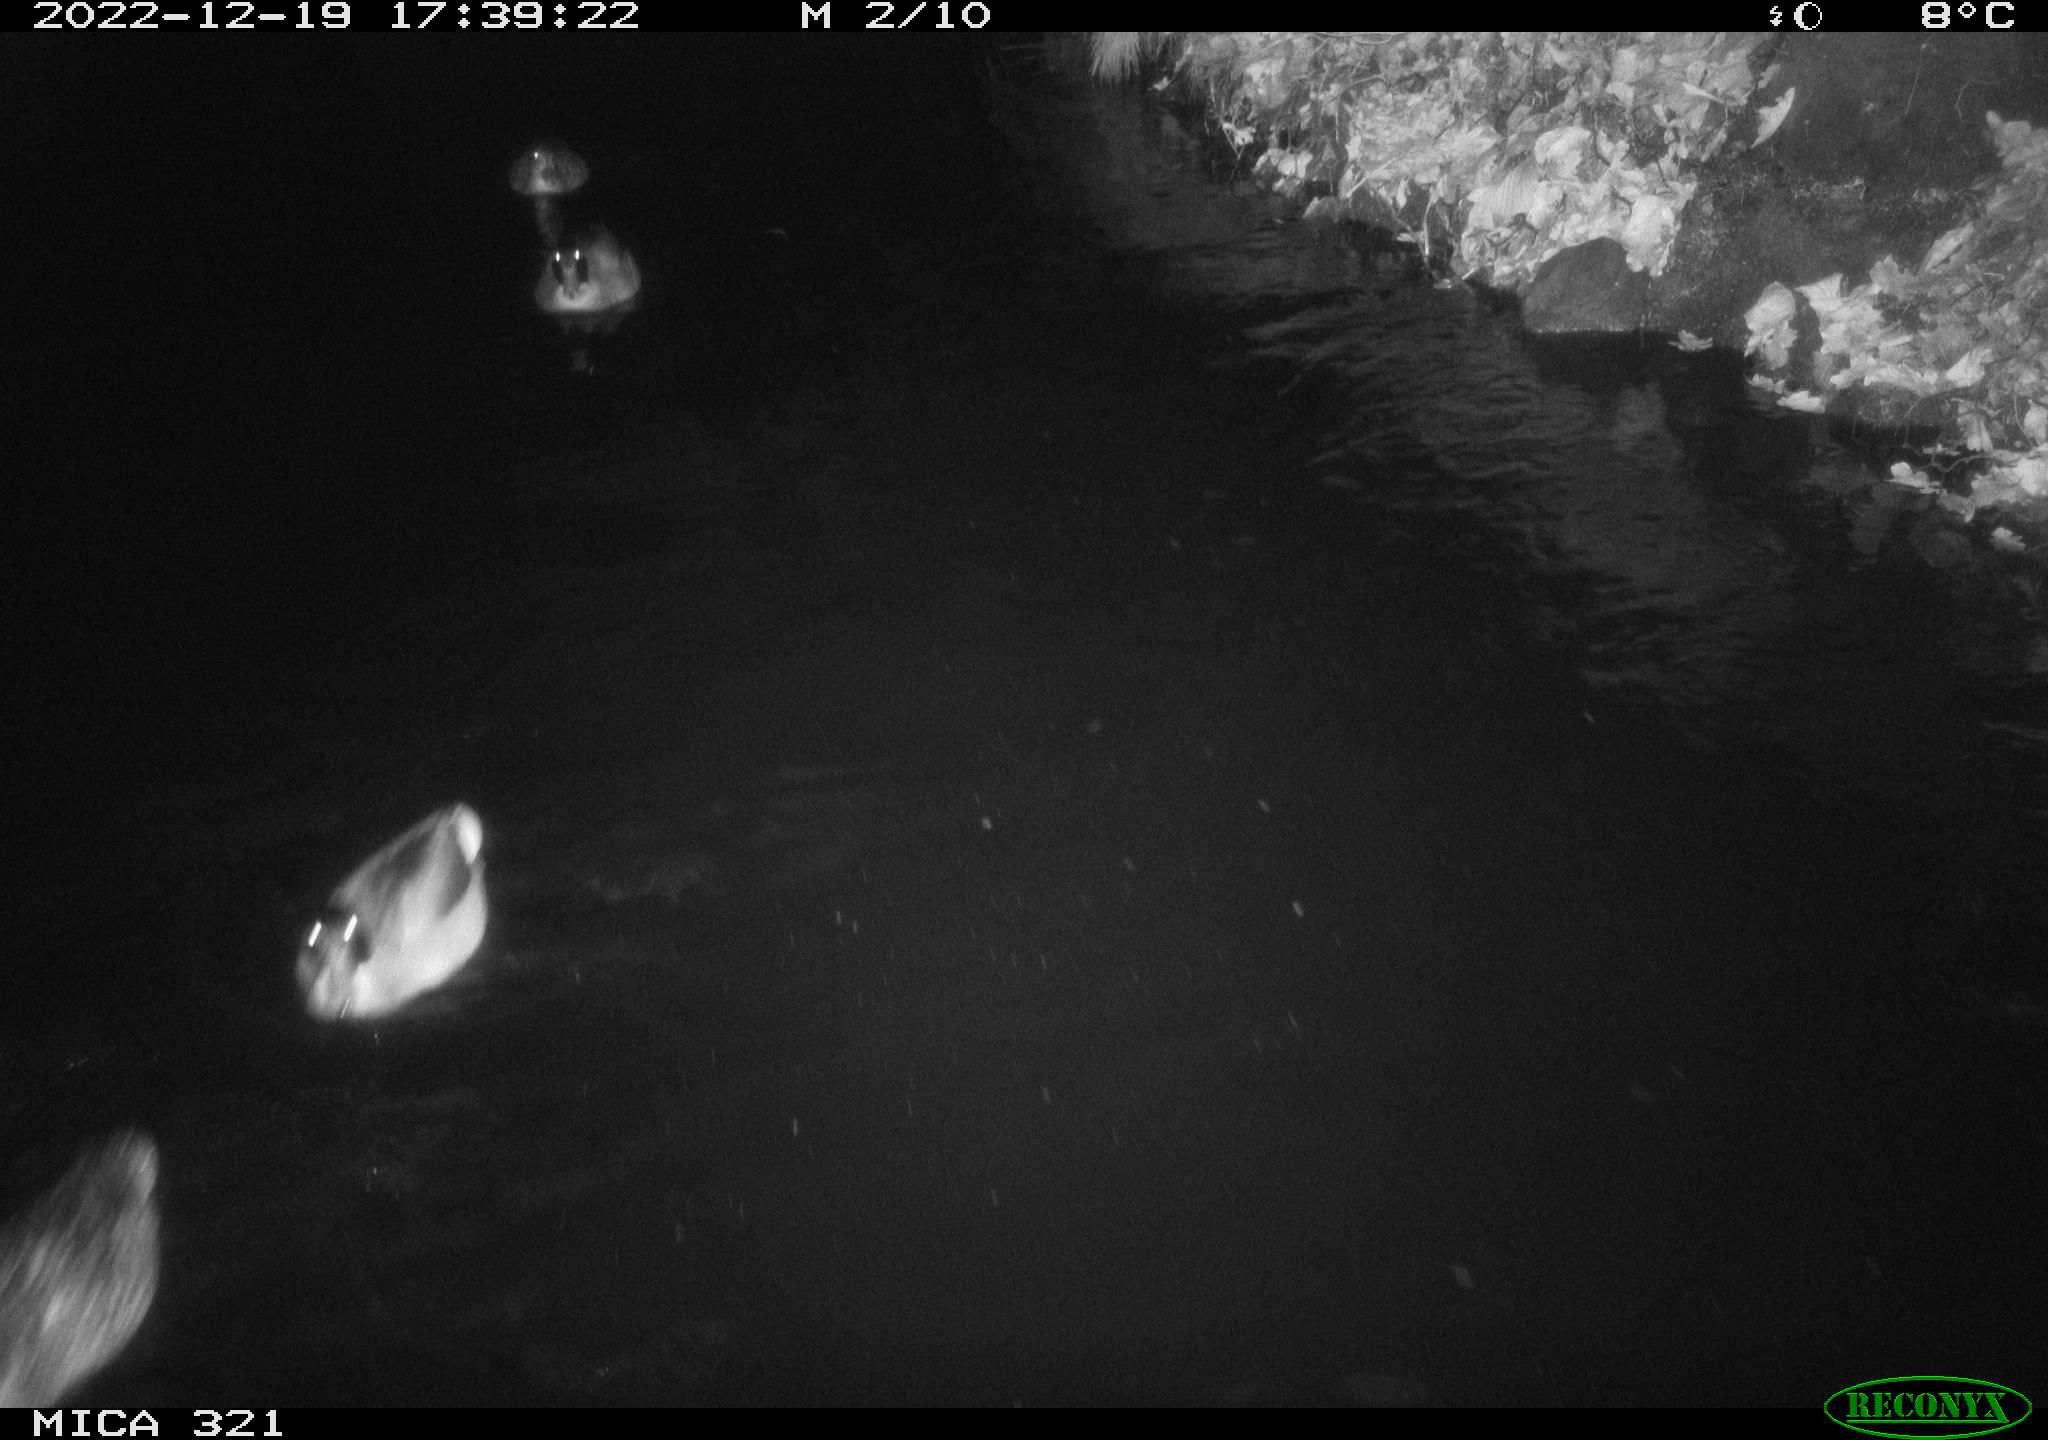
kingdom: Animalia
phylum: Chordata
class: Mammalia
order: Rodentia
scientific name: Rodentia
